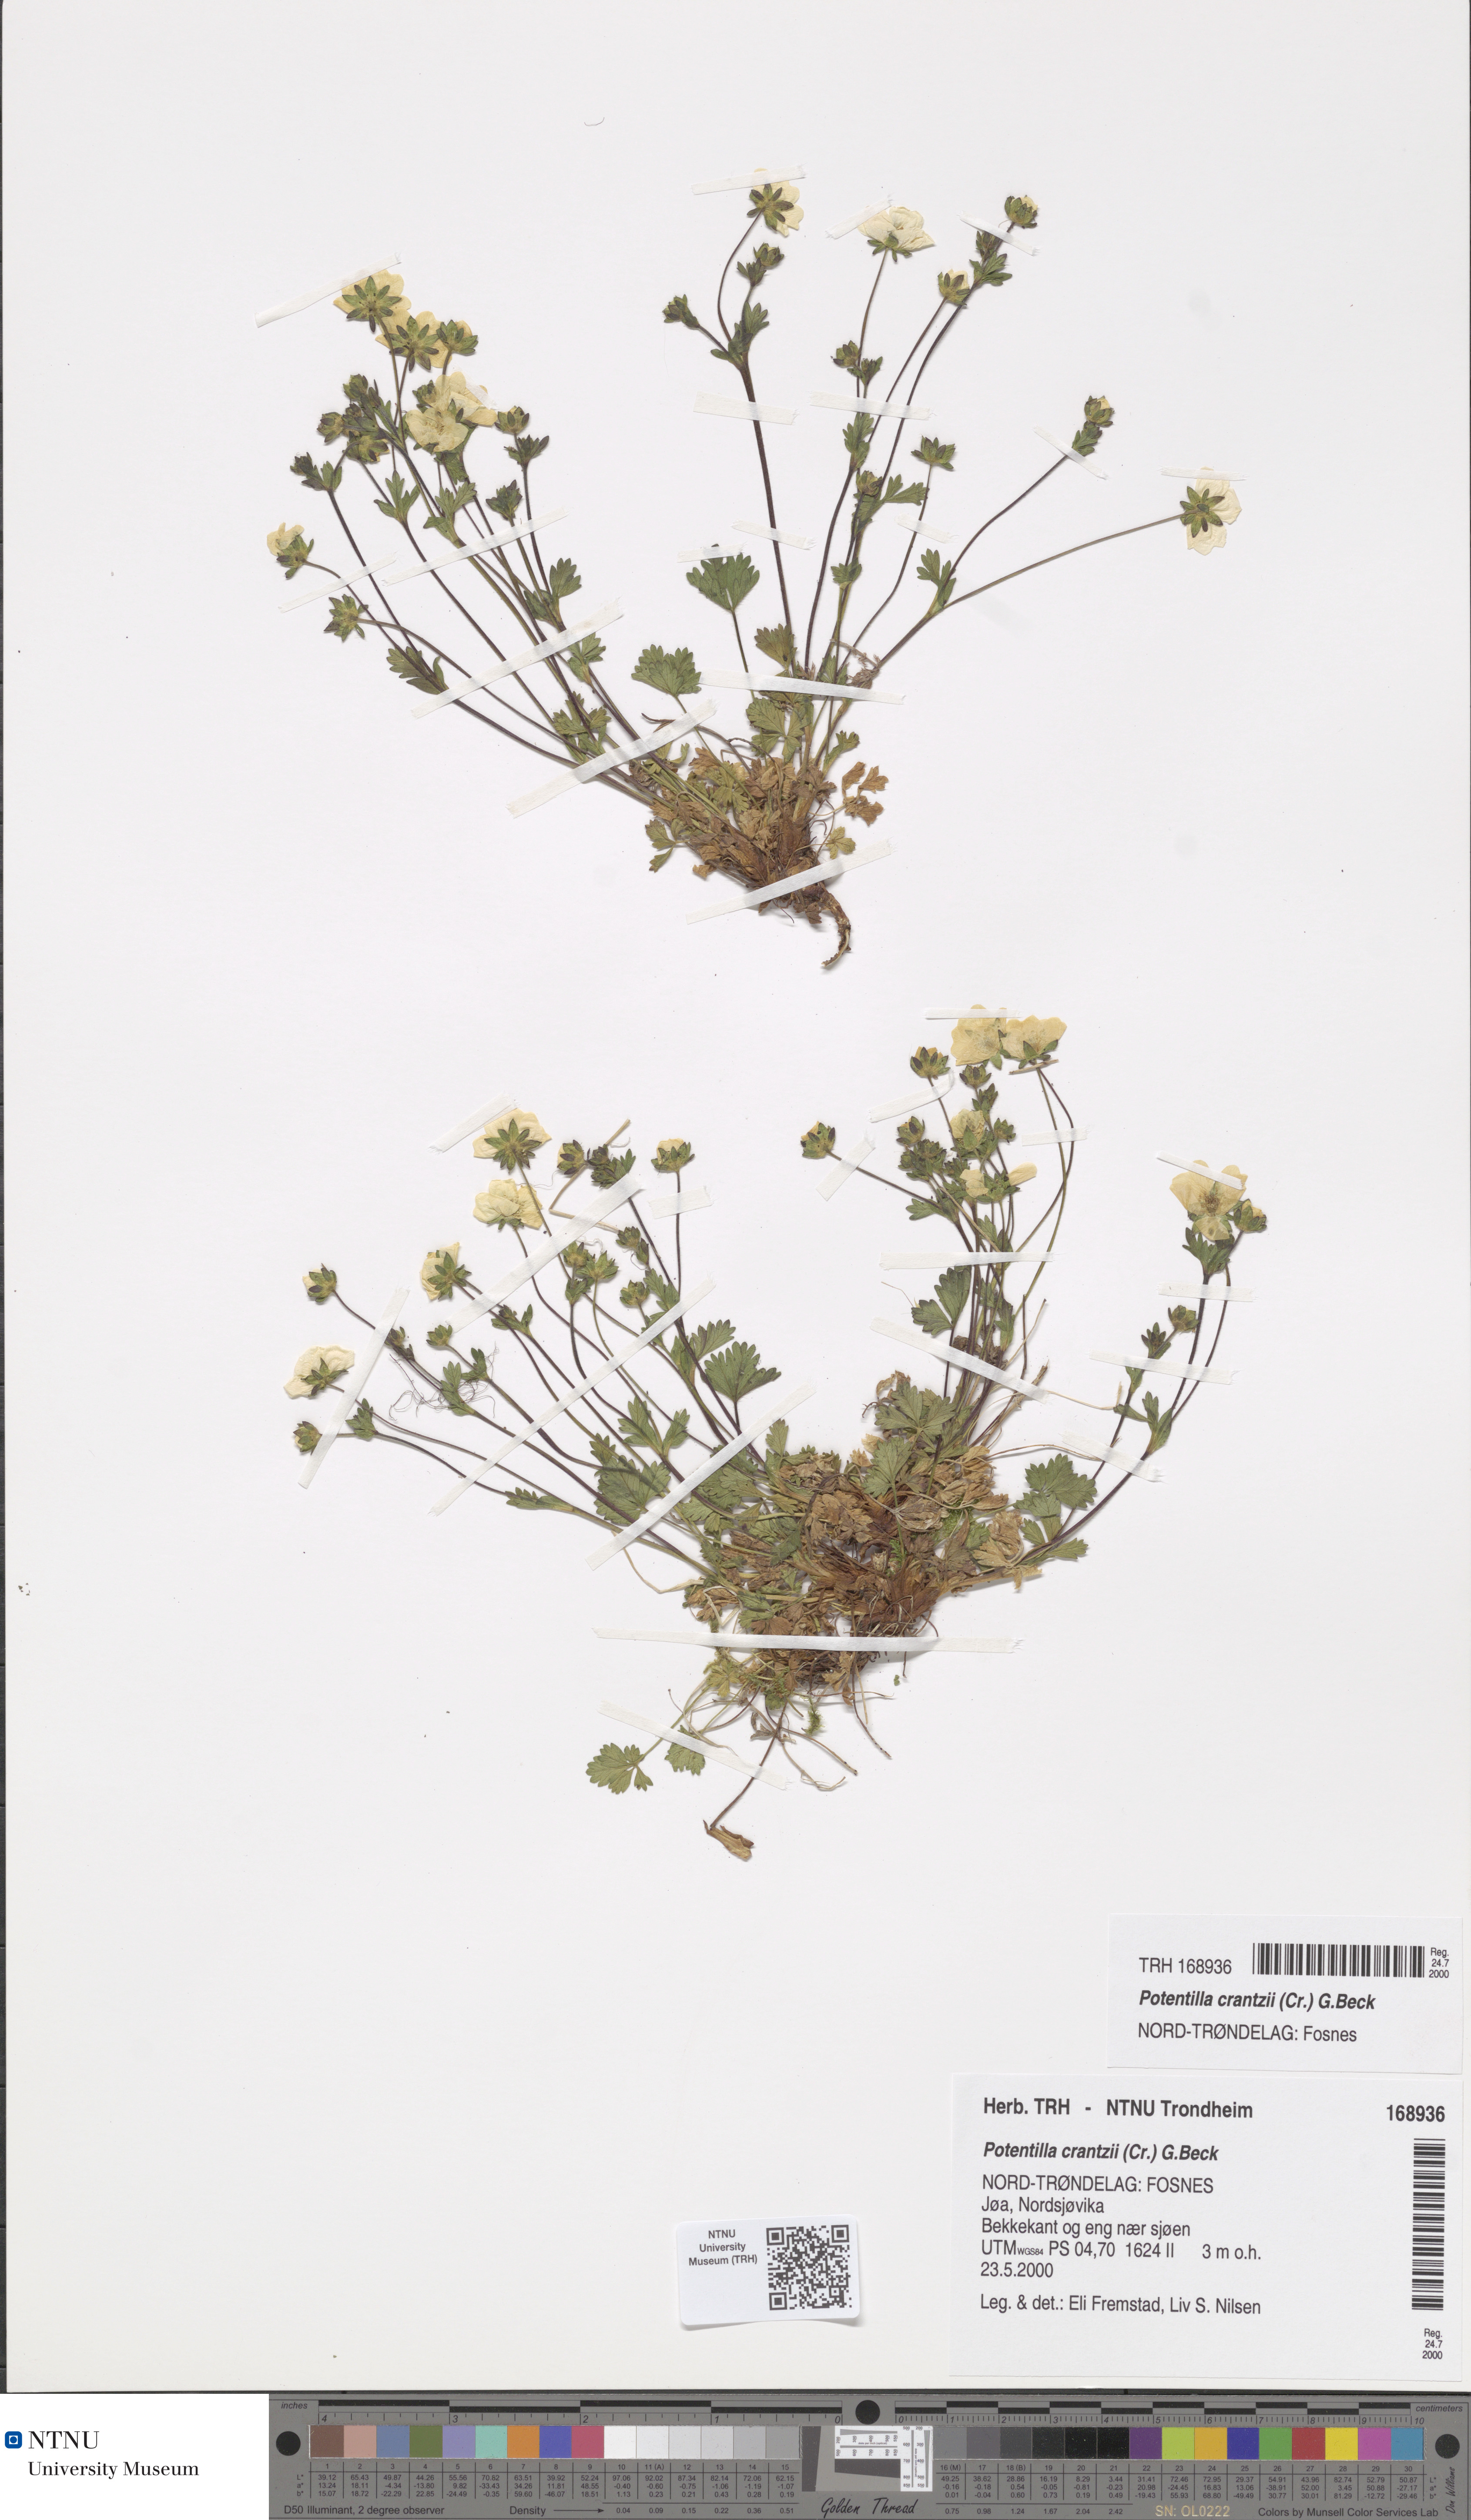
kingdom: Plantae
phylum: Tracheophyta
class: Magnoliopsida
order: Rosales
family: Rosaceae
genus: Potentilla
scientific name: Potentilla crantzii
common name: Alpine cinquefoil
